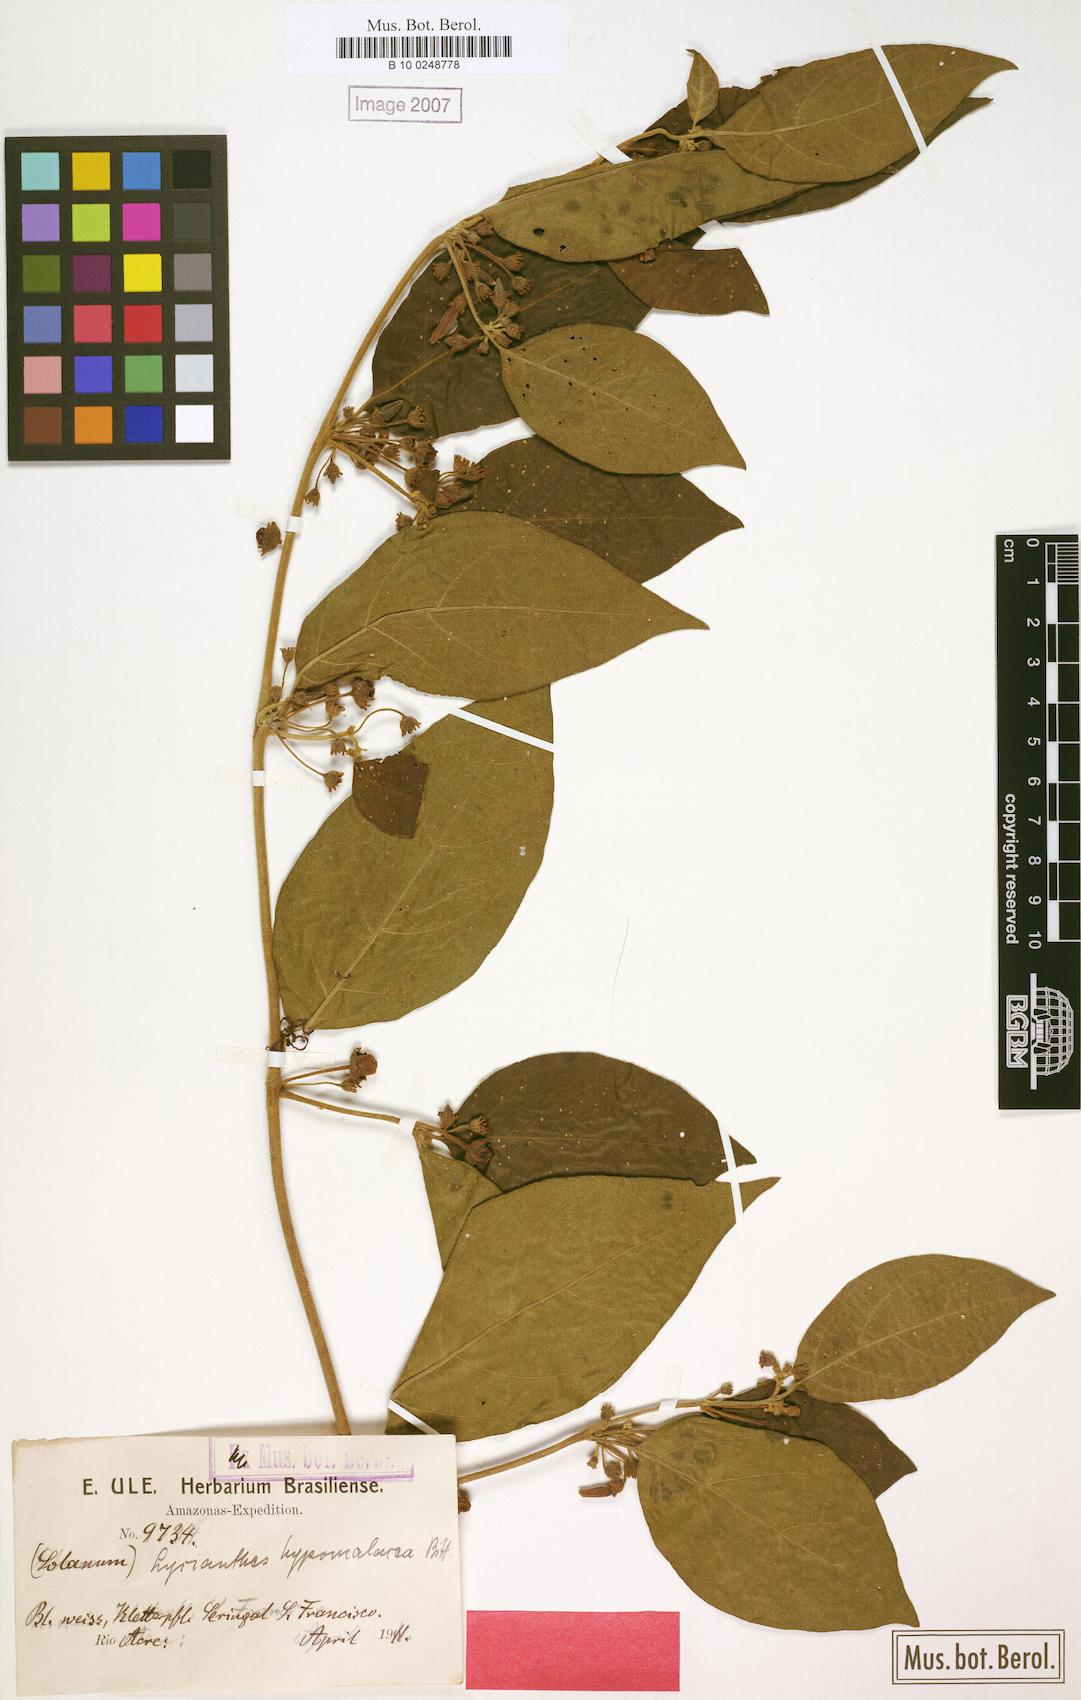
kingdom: Plantae
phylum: Tracheophyta
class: Magnoliopsida
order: Solanales
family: Solanaceae
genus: Lycianthes
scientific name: Lycianthes glandulosa
